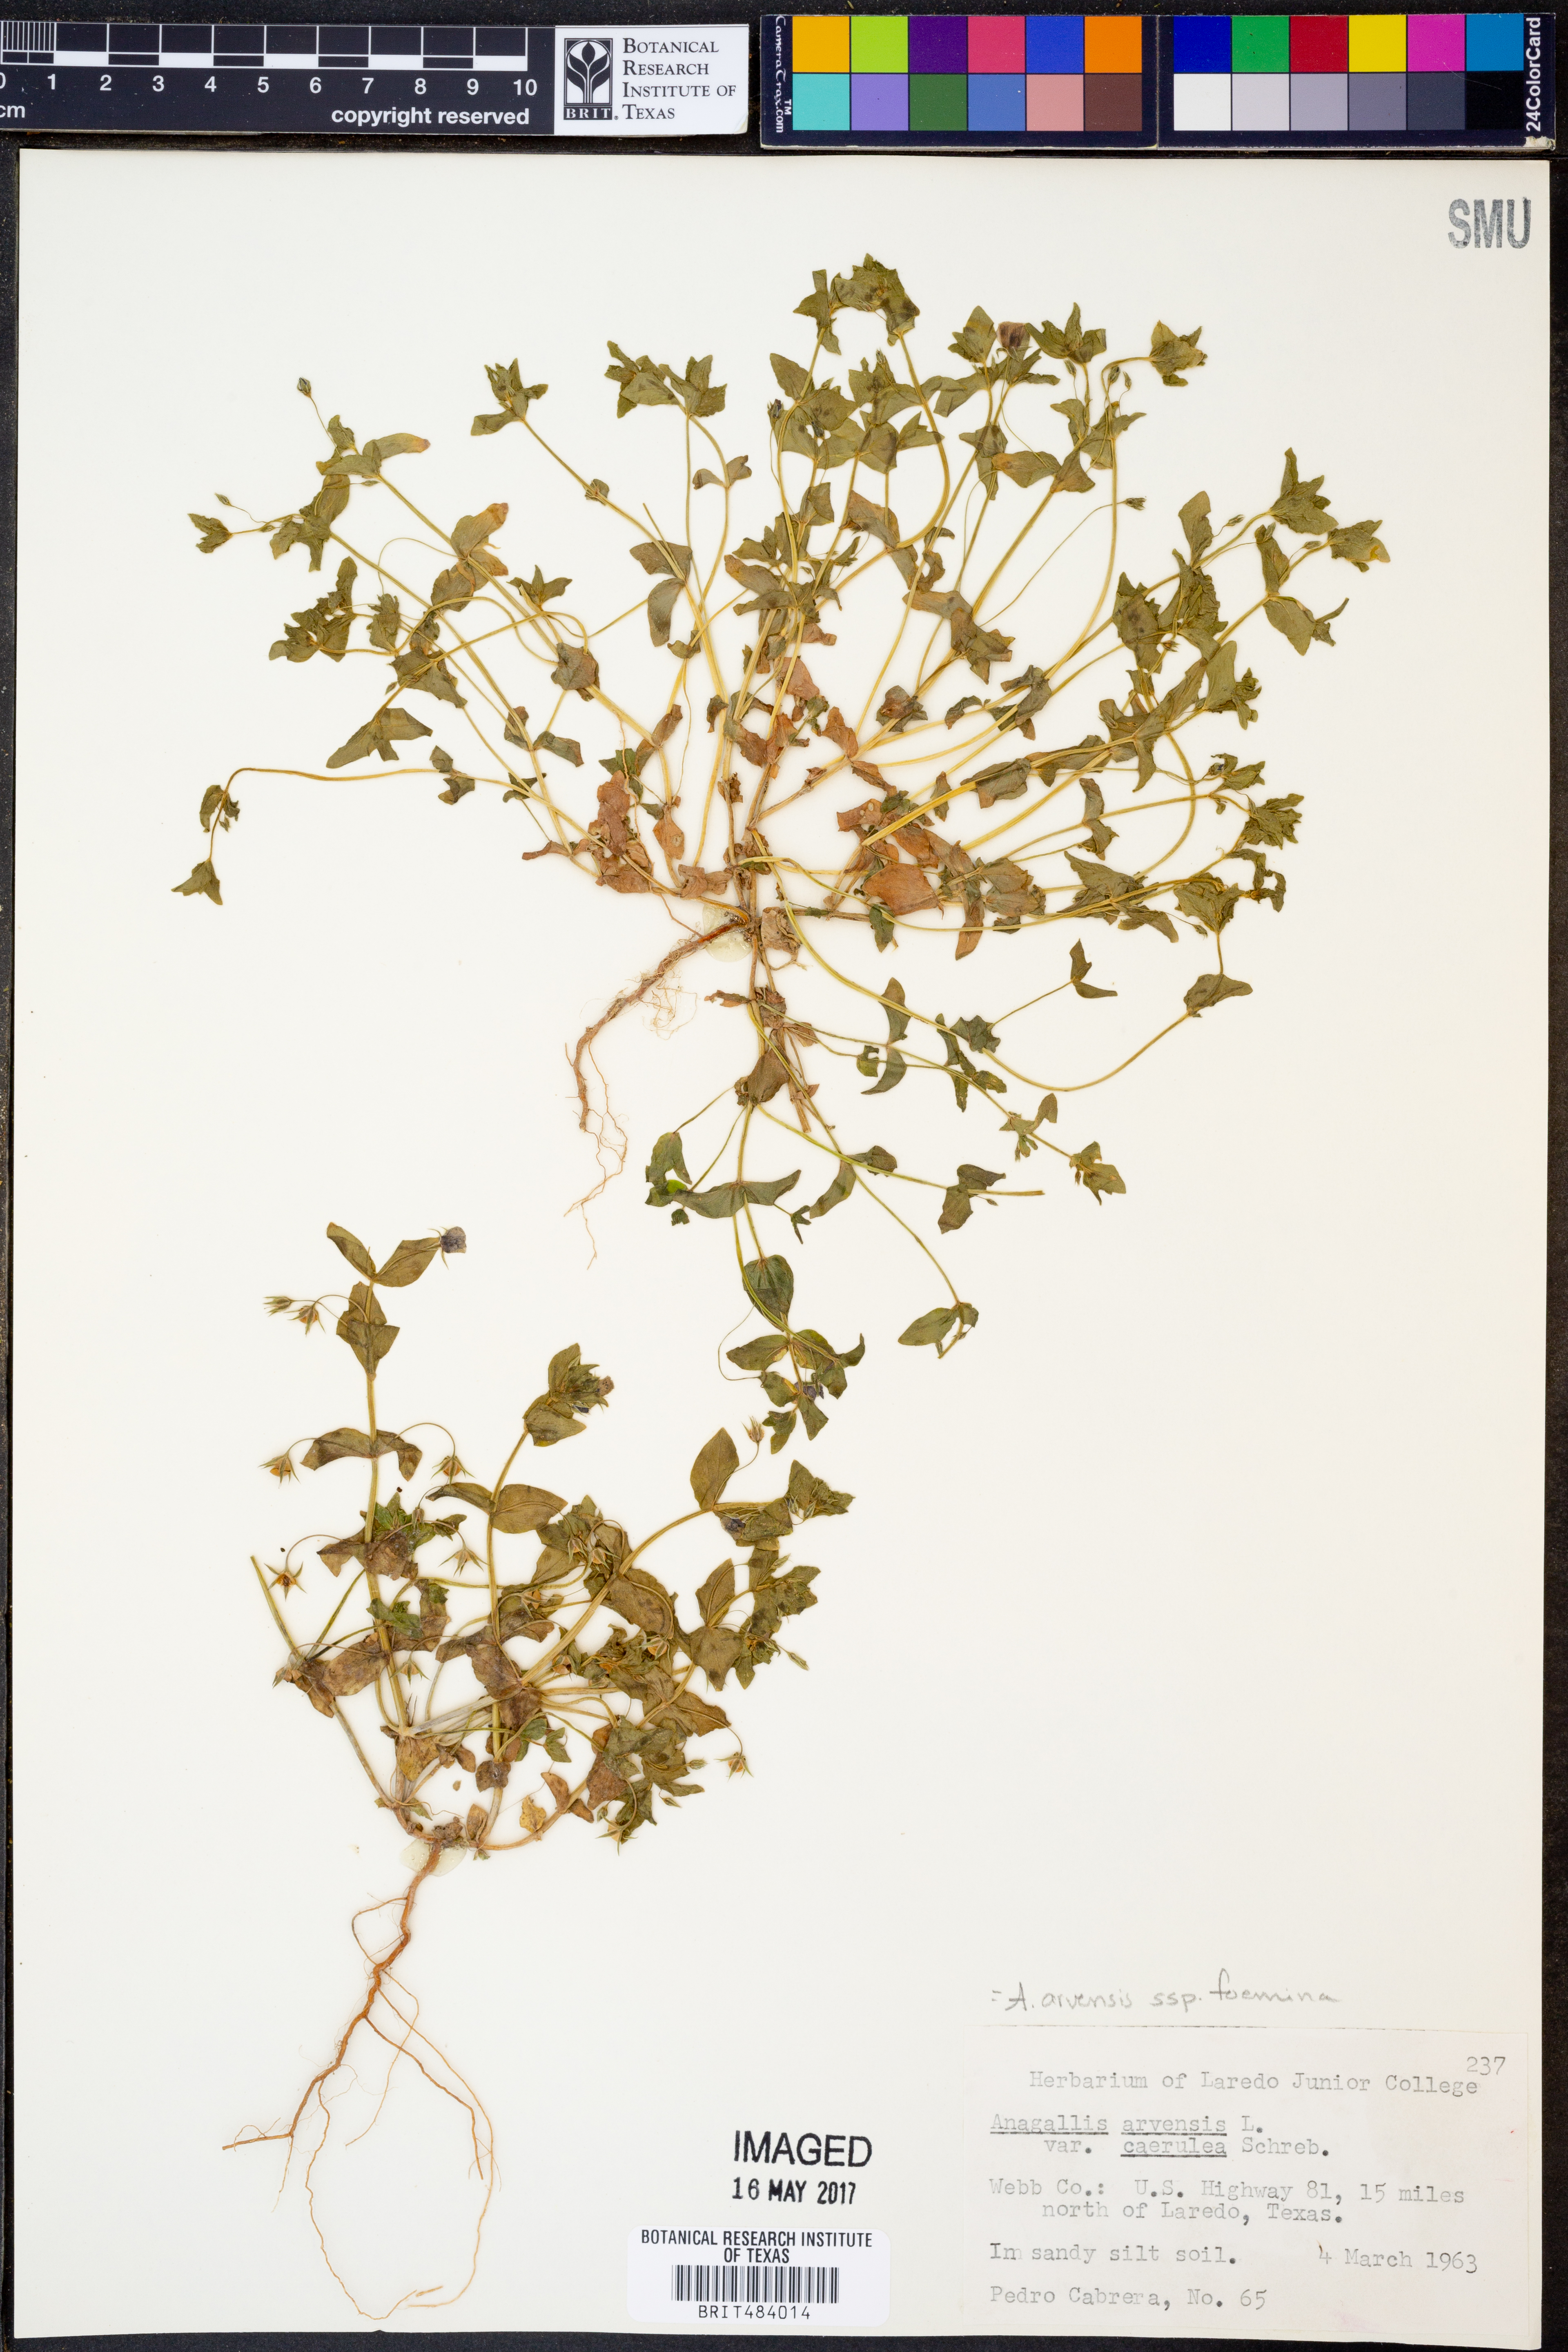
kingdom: Plantae
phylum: Tracheophyta
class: Magnoliopsida
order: Ericales
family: Primulaceae
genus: Lysimachia
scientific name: Lysimachia foemina
